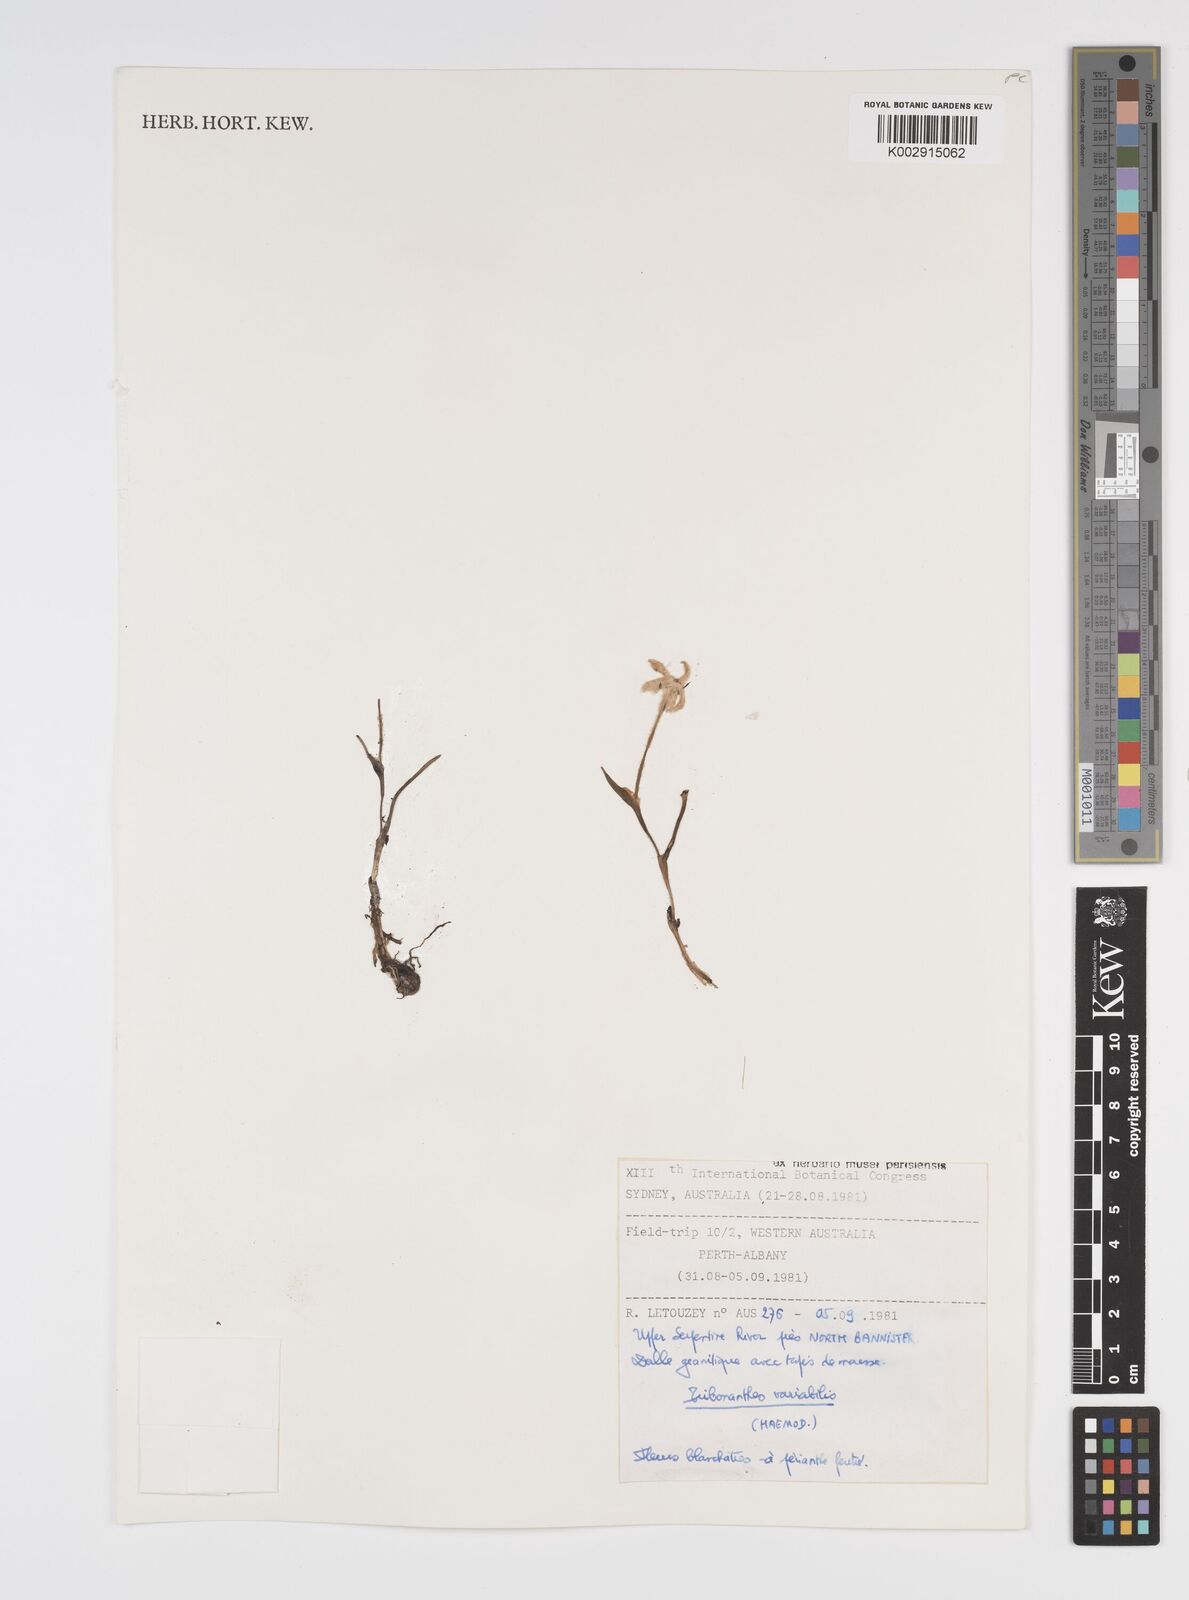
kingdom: Plantae
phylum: Tracheophyta
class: Liliopsida
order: Commelinales
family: Haemodoraceae
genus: Tribonanthes
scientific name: Tribonanthes australis
